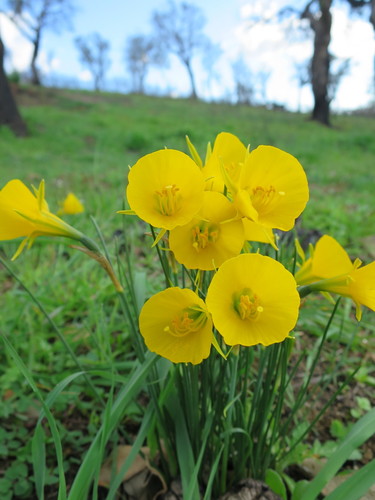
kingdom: Plantae
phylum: Tracheophyta
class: Liliopsida
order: Asparagales
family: Amaryllidaceae
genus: Narcissus
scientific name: Narcissus bulbocodium
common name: Hoop-petticoat daffodil
